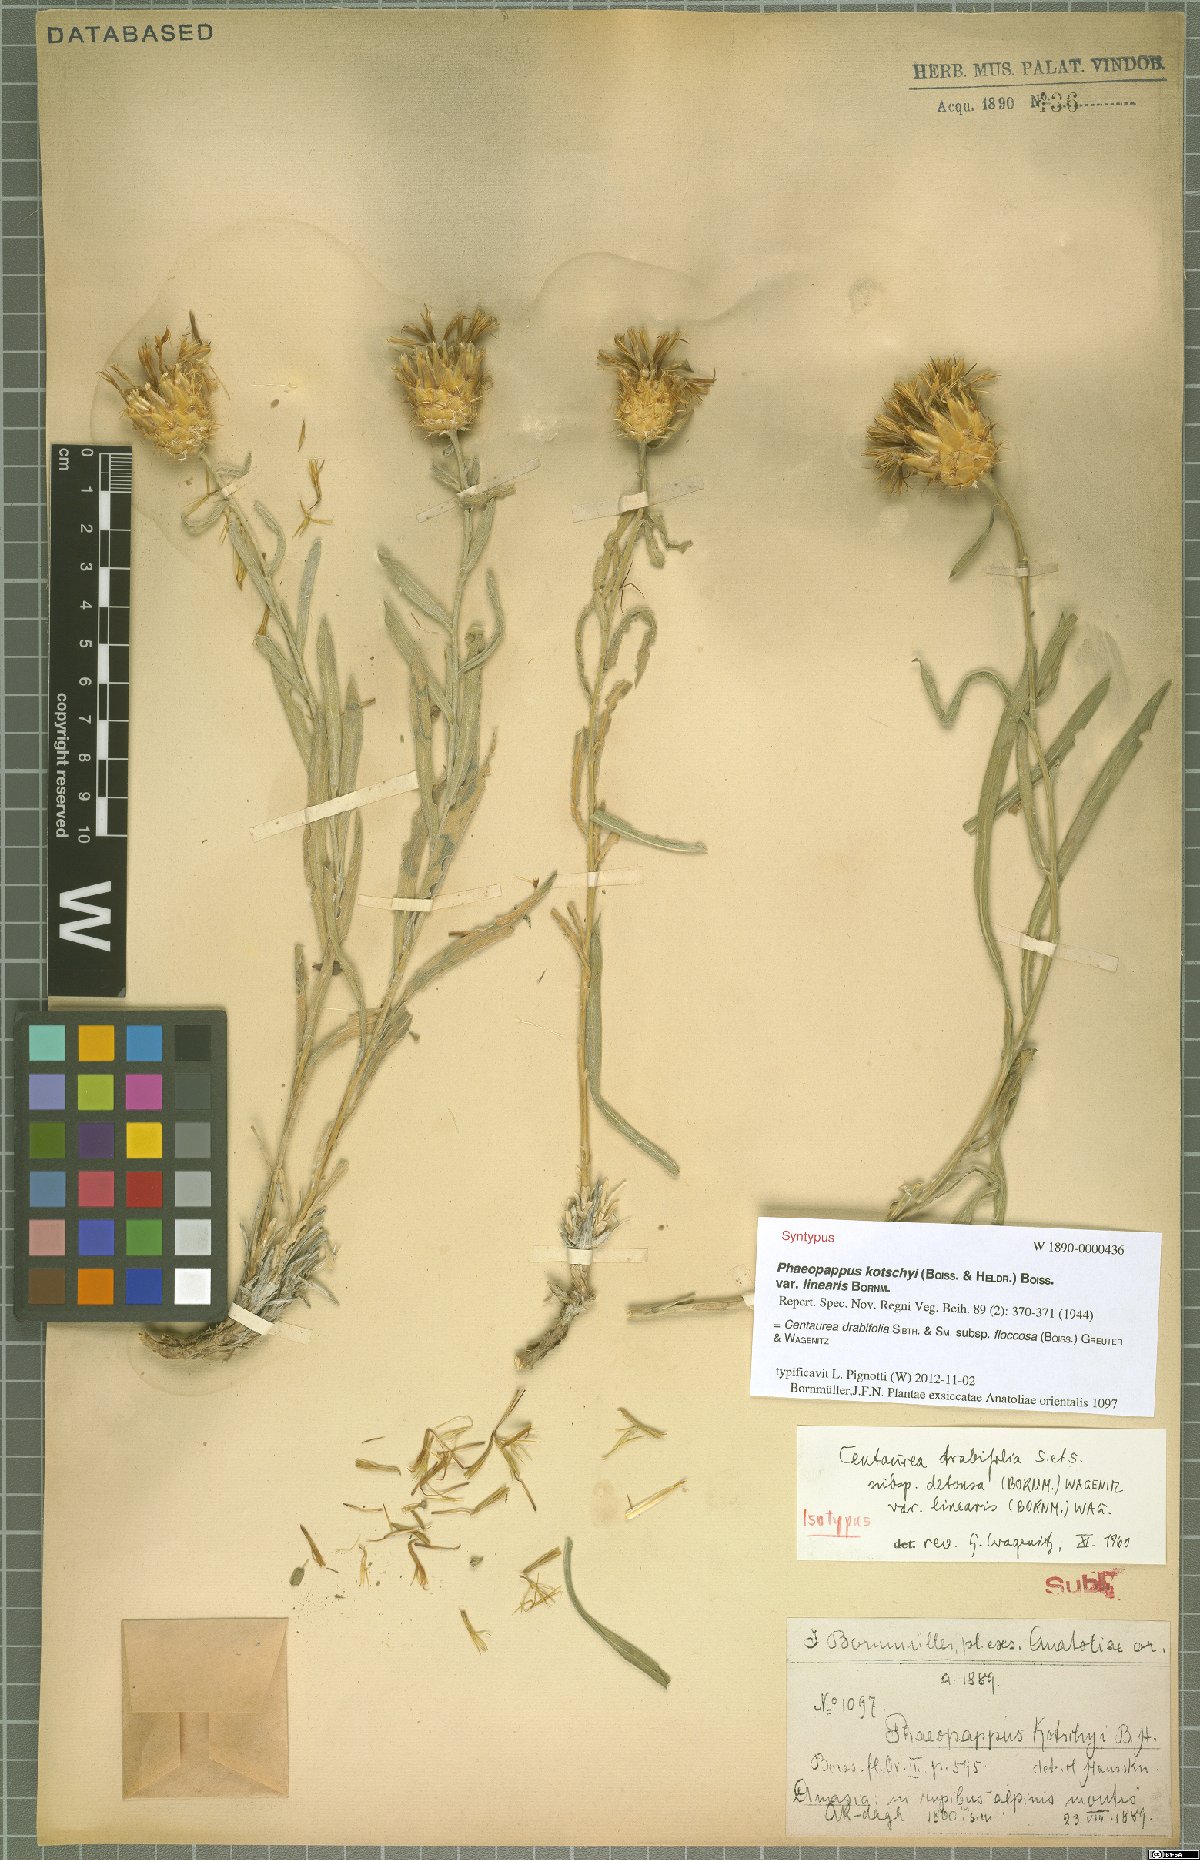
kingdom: Plantae
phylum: Tracheophyta
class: Magnoliopsida
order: Asterales
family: Asteraceae
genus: Centaurea
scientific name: Centaurea kotschyi
